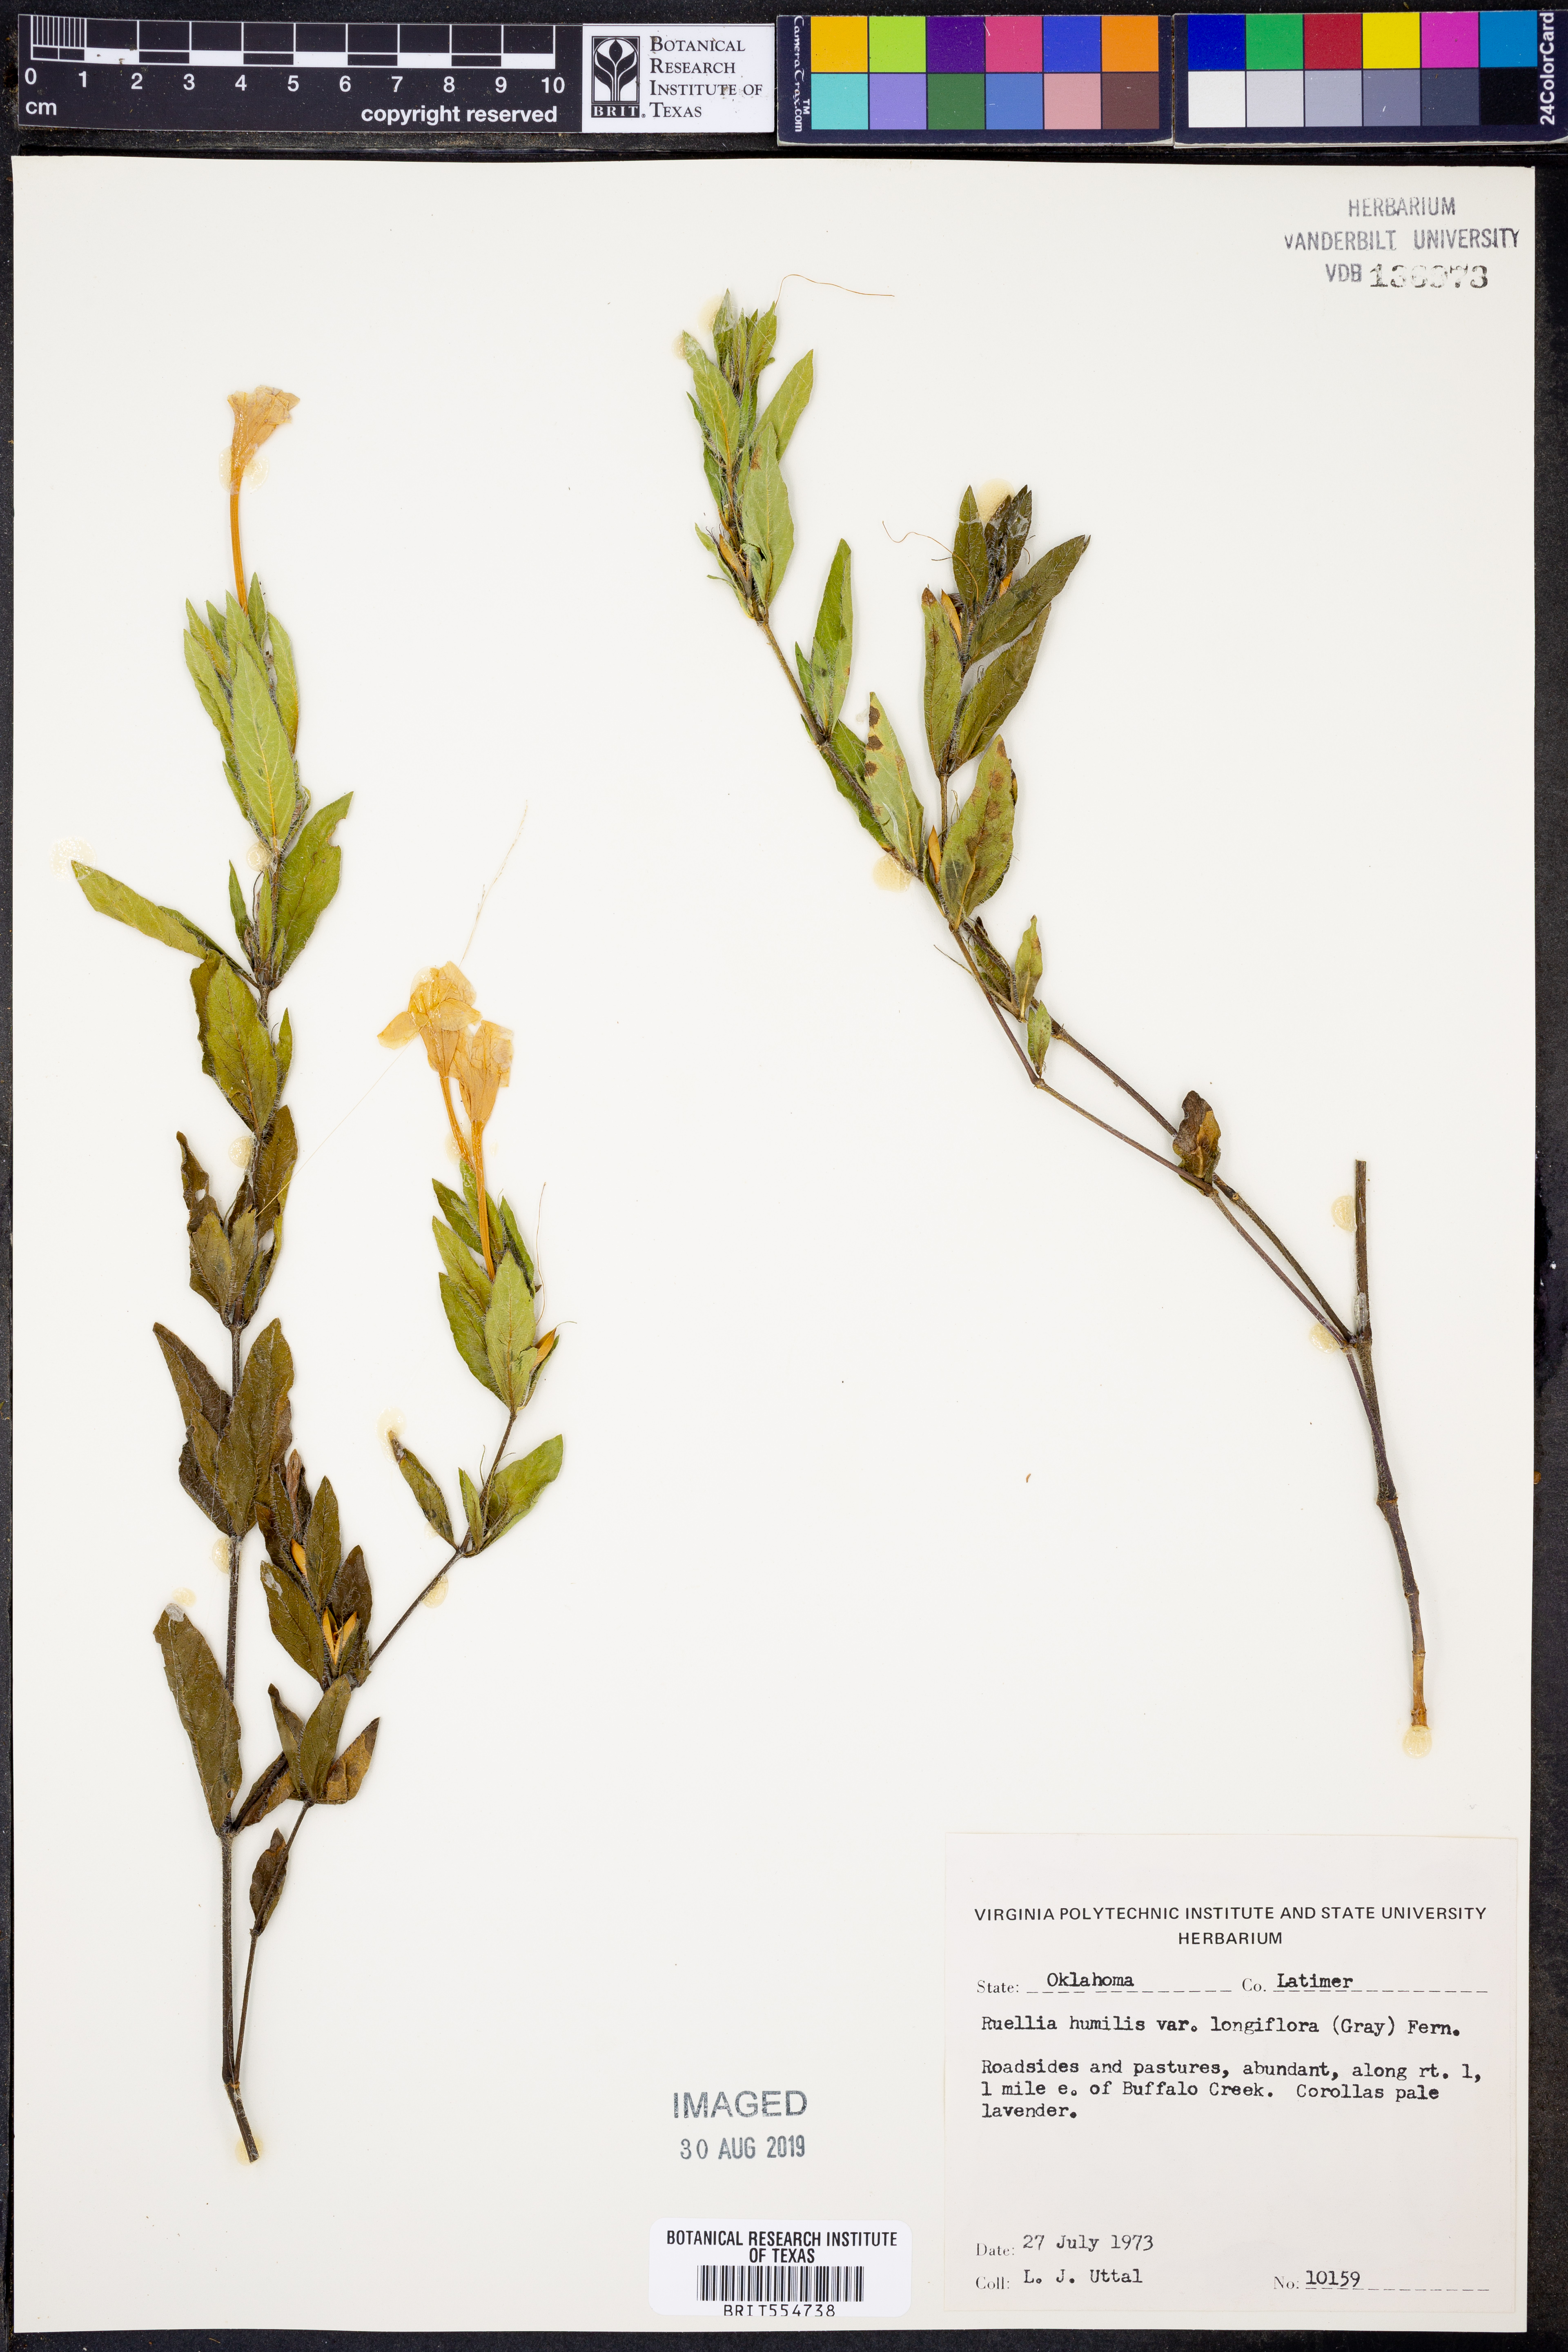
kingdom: Plantae
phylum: Tracheophyta
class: Magnoliopsida
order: Lamiales
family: Acanthaceae
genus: Ruellia
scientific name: Ruellia humilis
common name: Fringe-leaf ruellia
